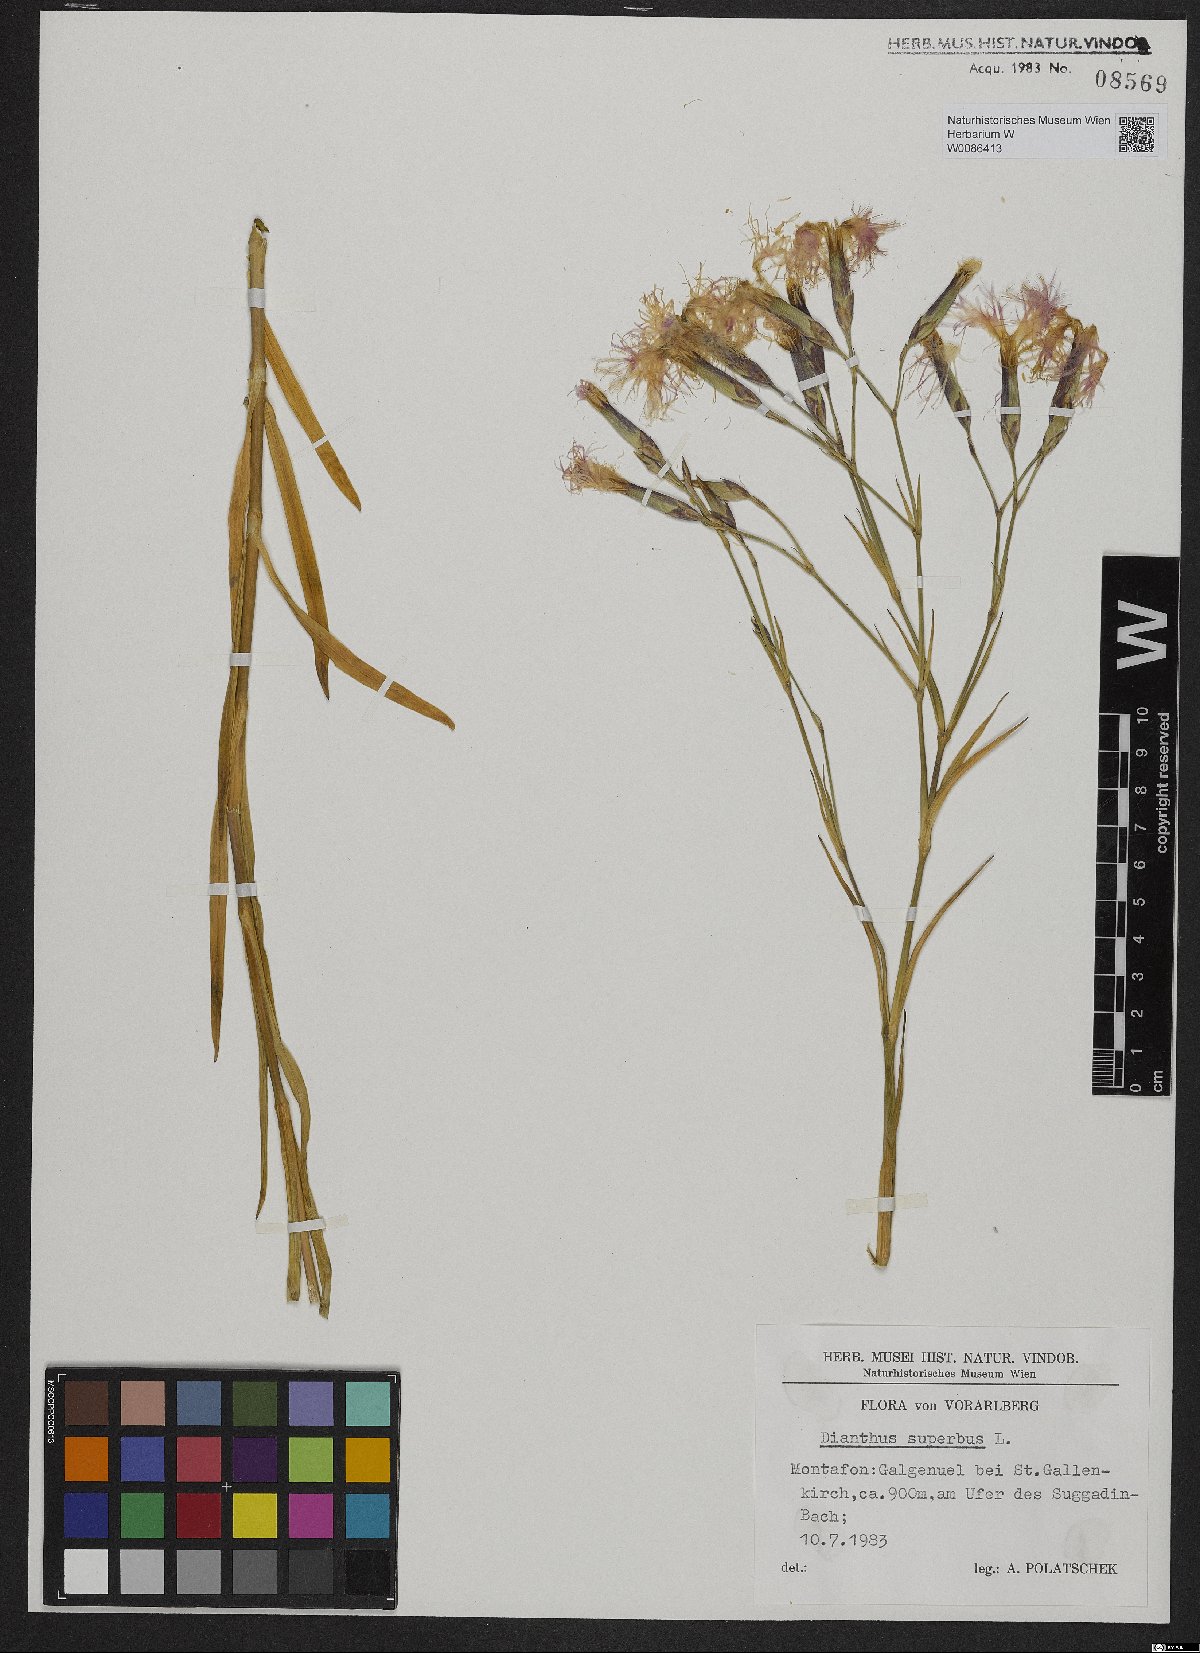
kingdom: Plantae
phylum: Tracheophyta
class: Magnoliopsida
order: Caryophyllales
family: Caryophyllaceae
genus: Dianthus
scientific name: Dianthus superbus
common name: Fringed pink
